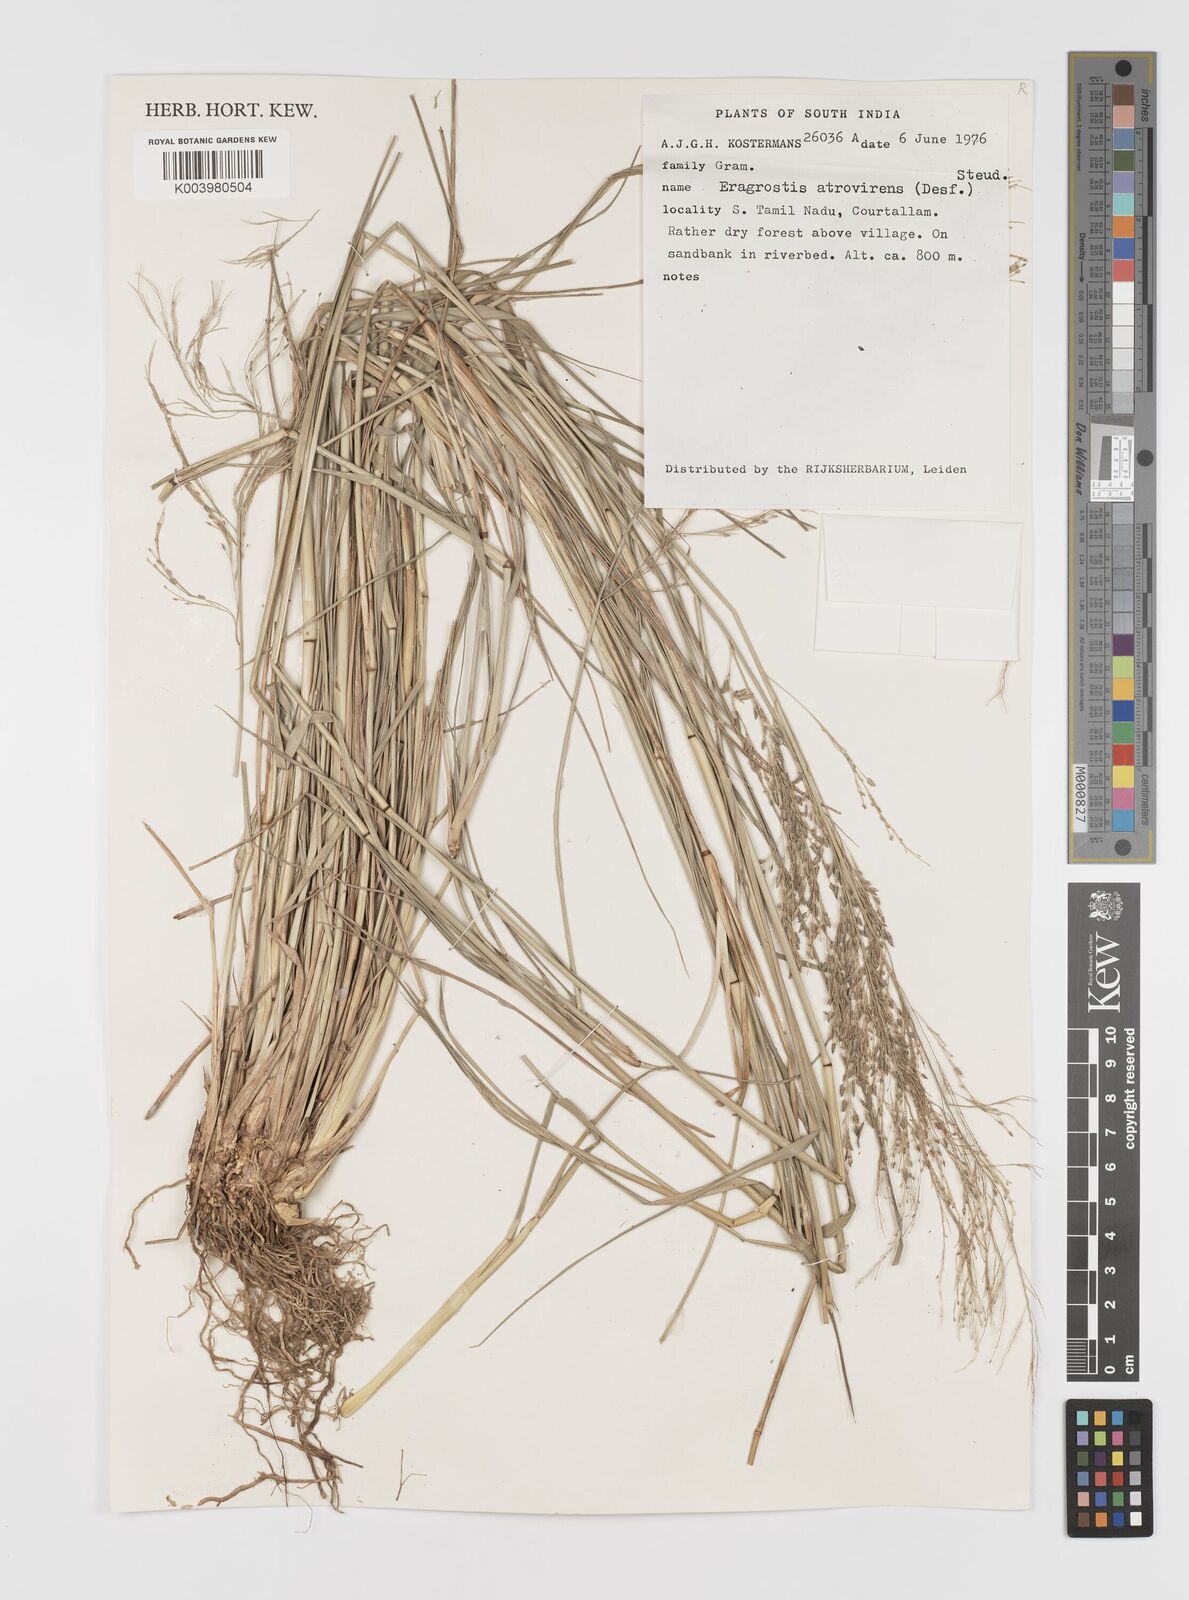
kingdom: Plantae
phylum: Tracheophyta
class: Liliopsida
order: Poales
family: Poaceae
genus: Eragrostis
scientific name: Eragrostis
